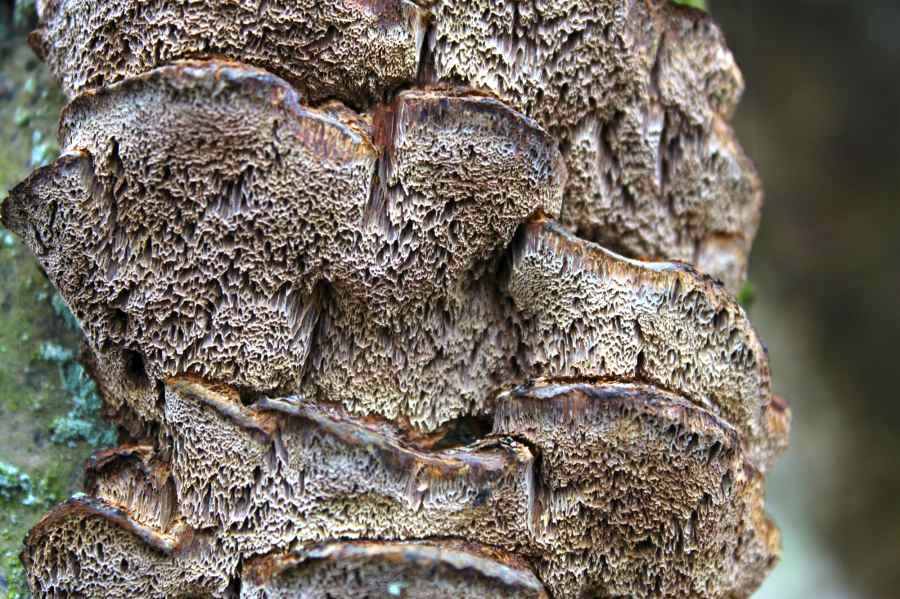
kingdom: Fungi
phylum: Basidiomycota
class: Agaricomycetes
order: Hymenochaetales
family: Hymenochaetaceae
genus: Xanthoporia
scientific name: Xanthoporia radiata
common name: elle-spejlporesvamp
